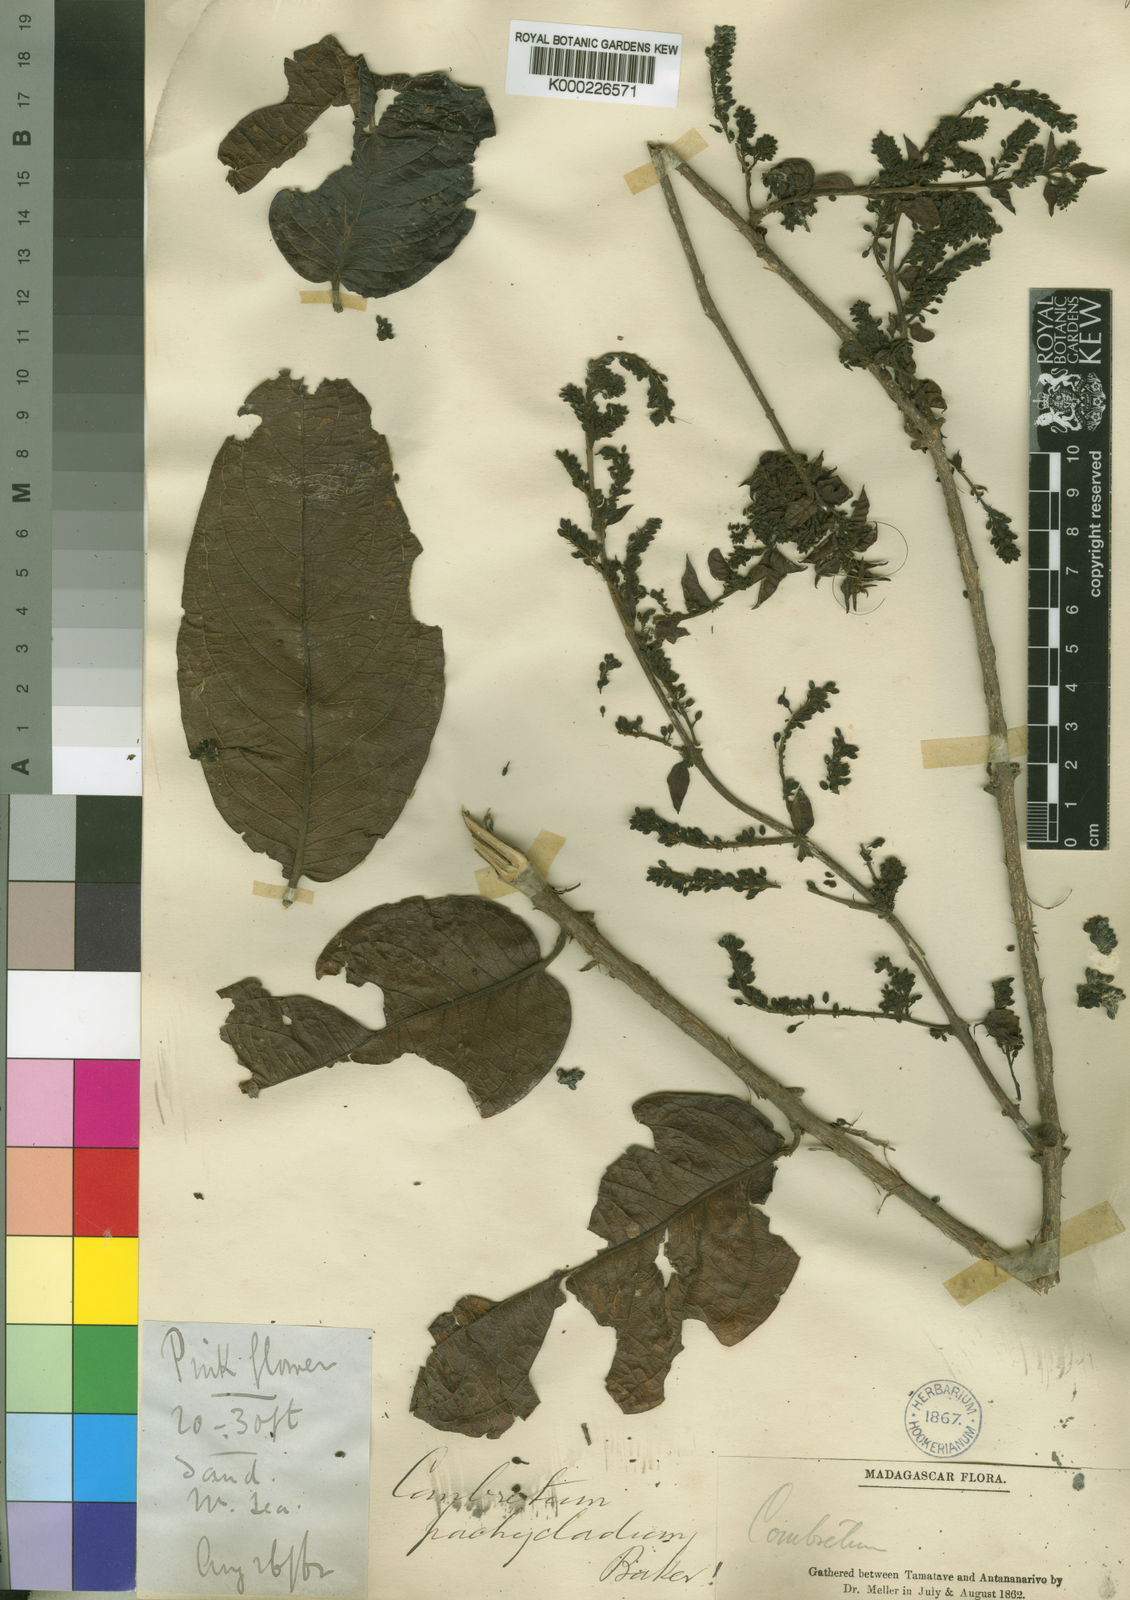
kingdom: Plantae
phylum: Tracheophyta
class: Magnoliopsida
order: Myrtales
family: Combretaceae
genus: Combretum
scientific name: Combretum
